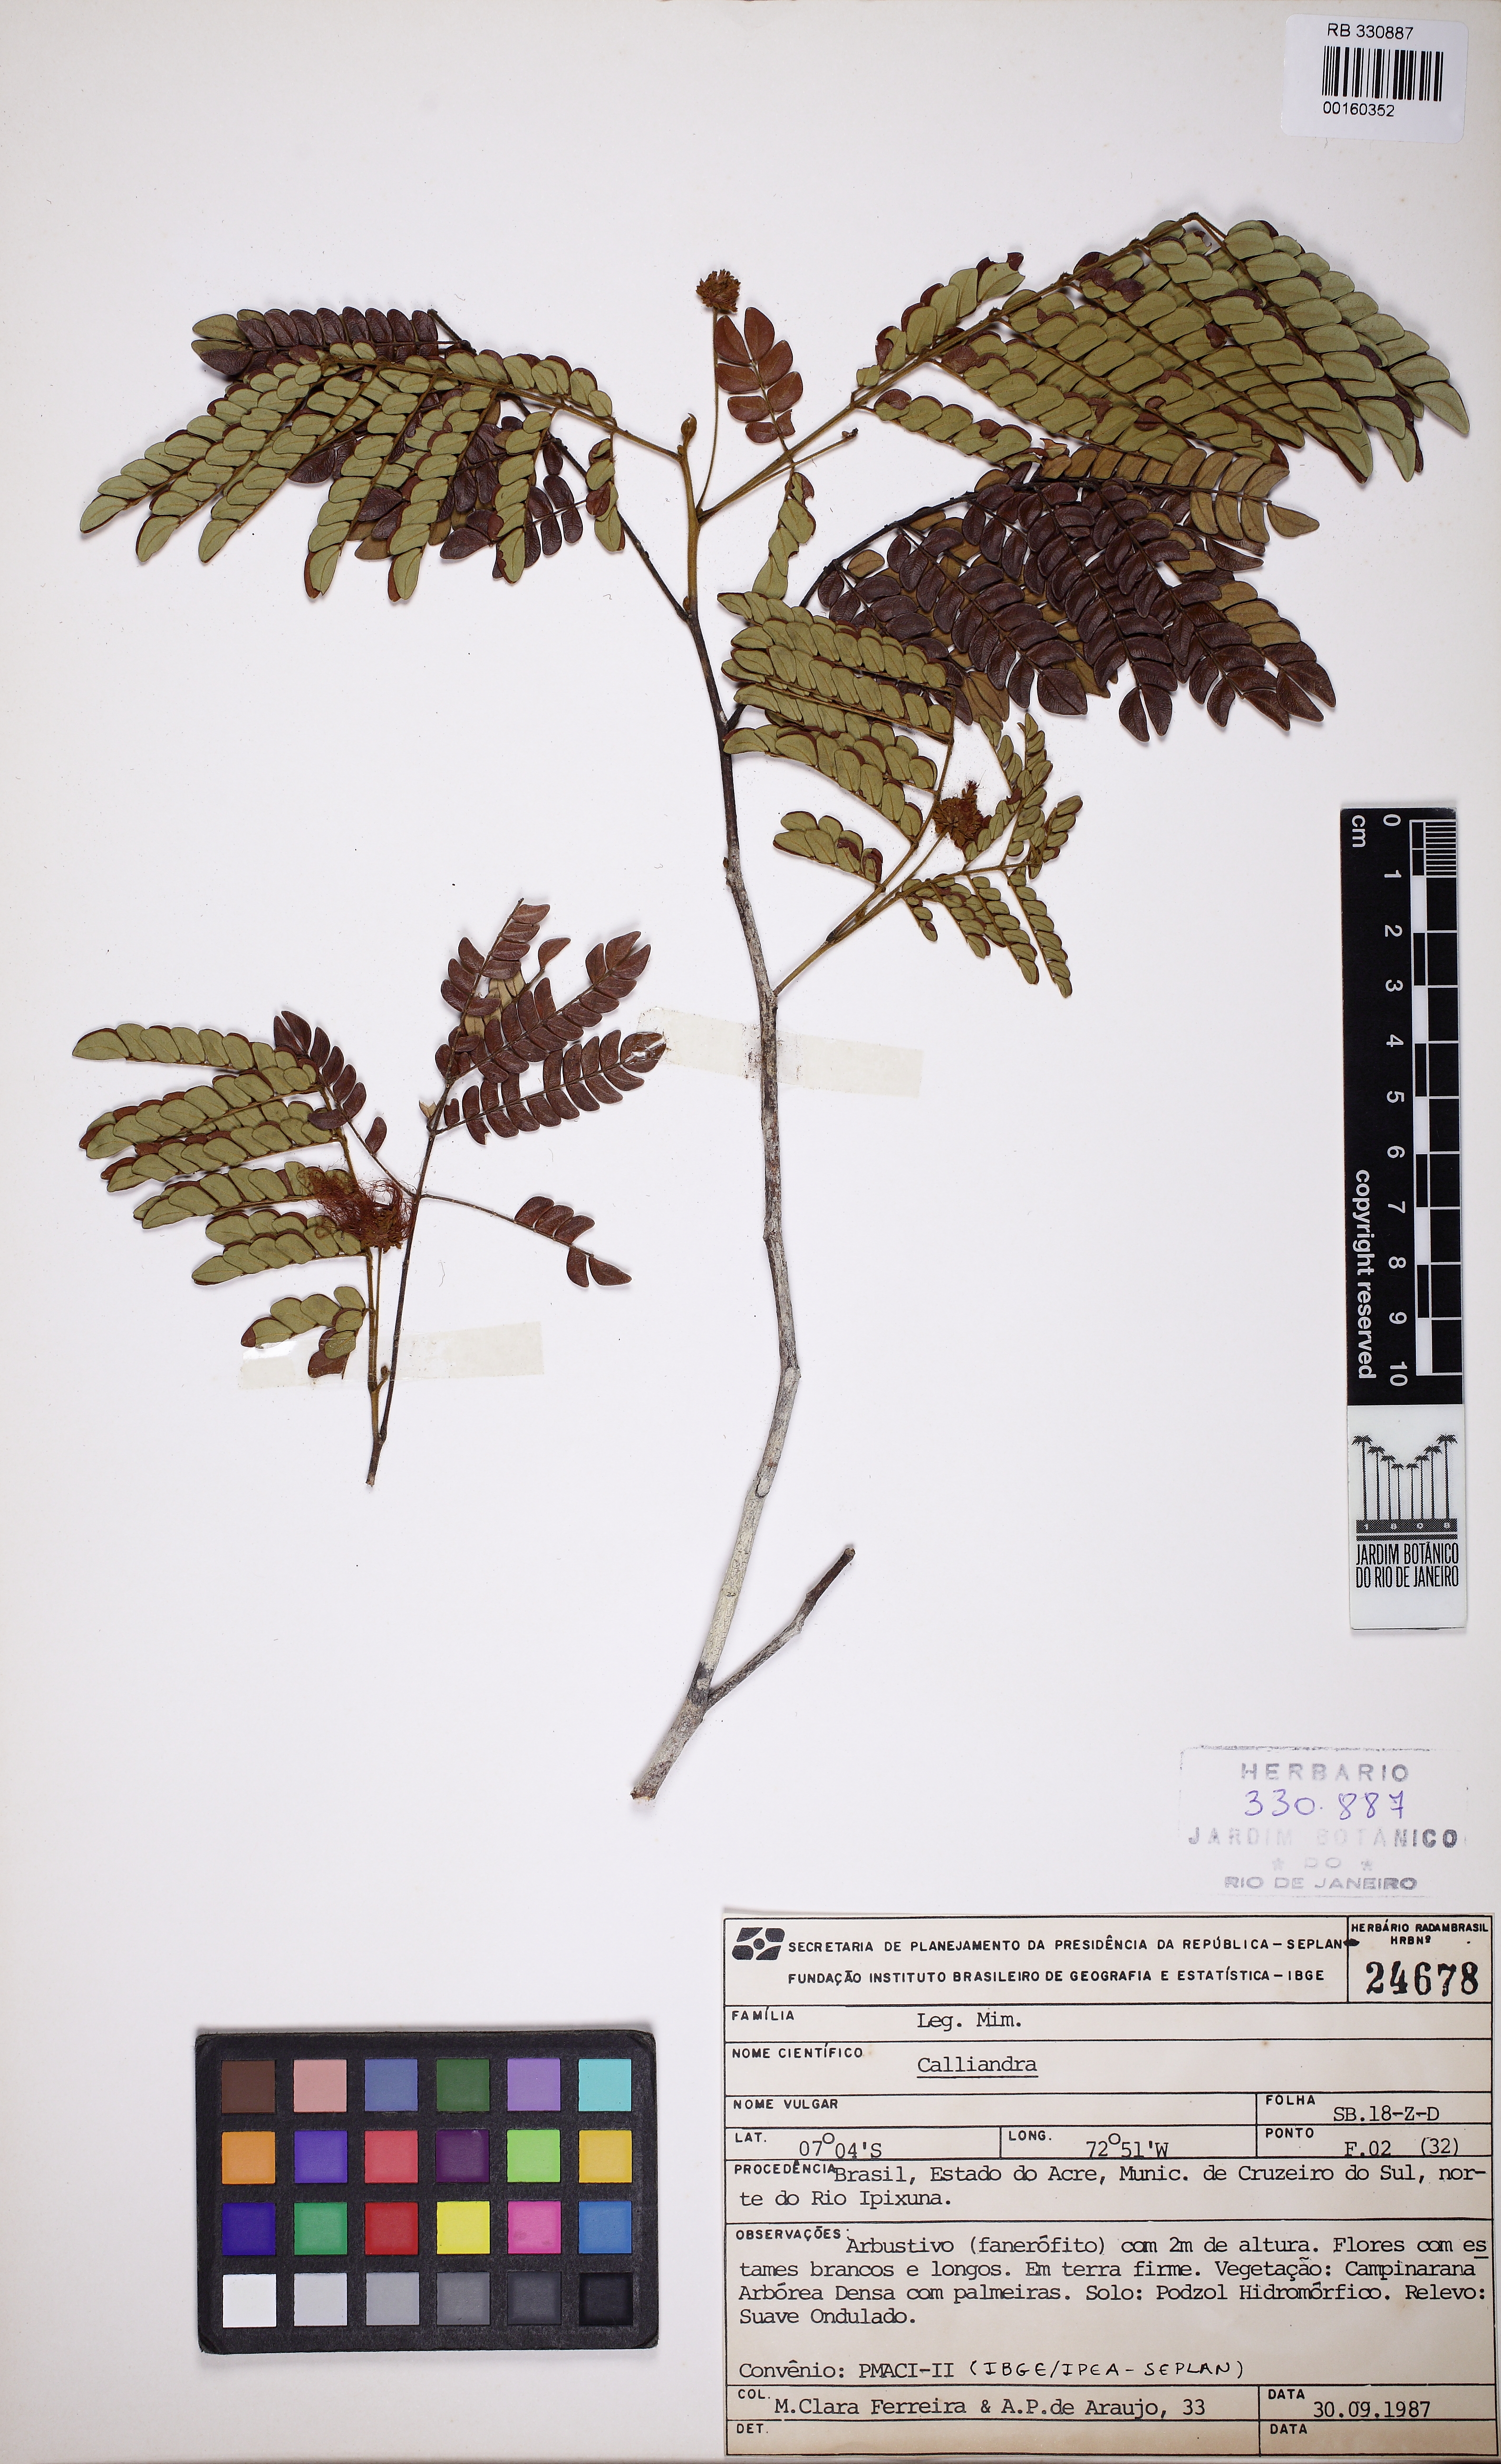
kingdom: Plantae
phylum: Tracheophyta
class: Magnoliopsida
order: Fabales
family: Fabaceae
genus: Calliandra
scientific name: Calliandra
